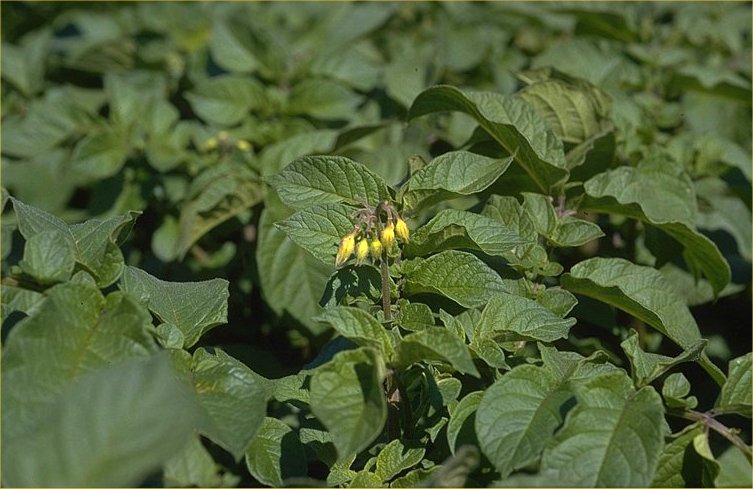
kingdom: Plantae
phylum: Tracheophyta
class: Magnoliopsida
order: Solanales
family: Solanaceae
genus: Solanum
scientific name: Solanum tuberosum
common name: Potato
